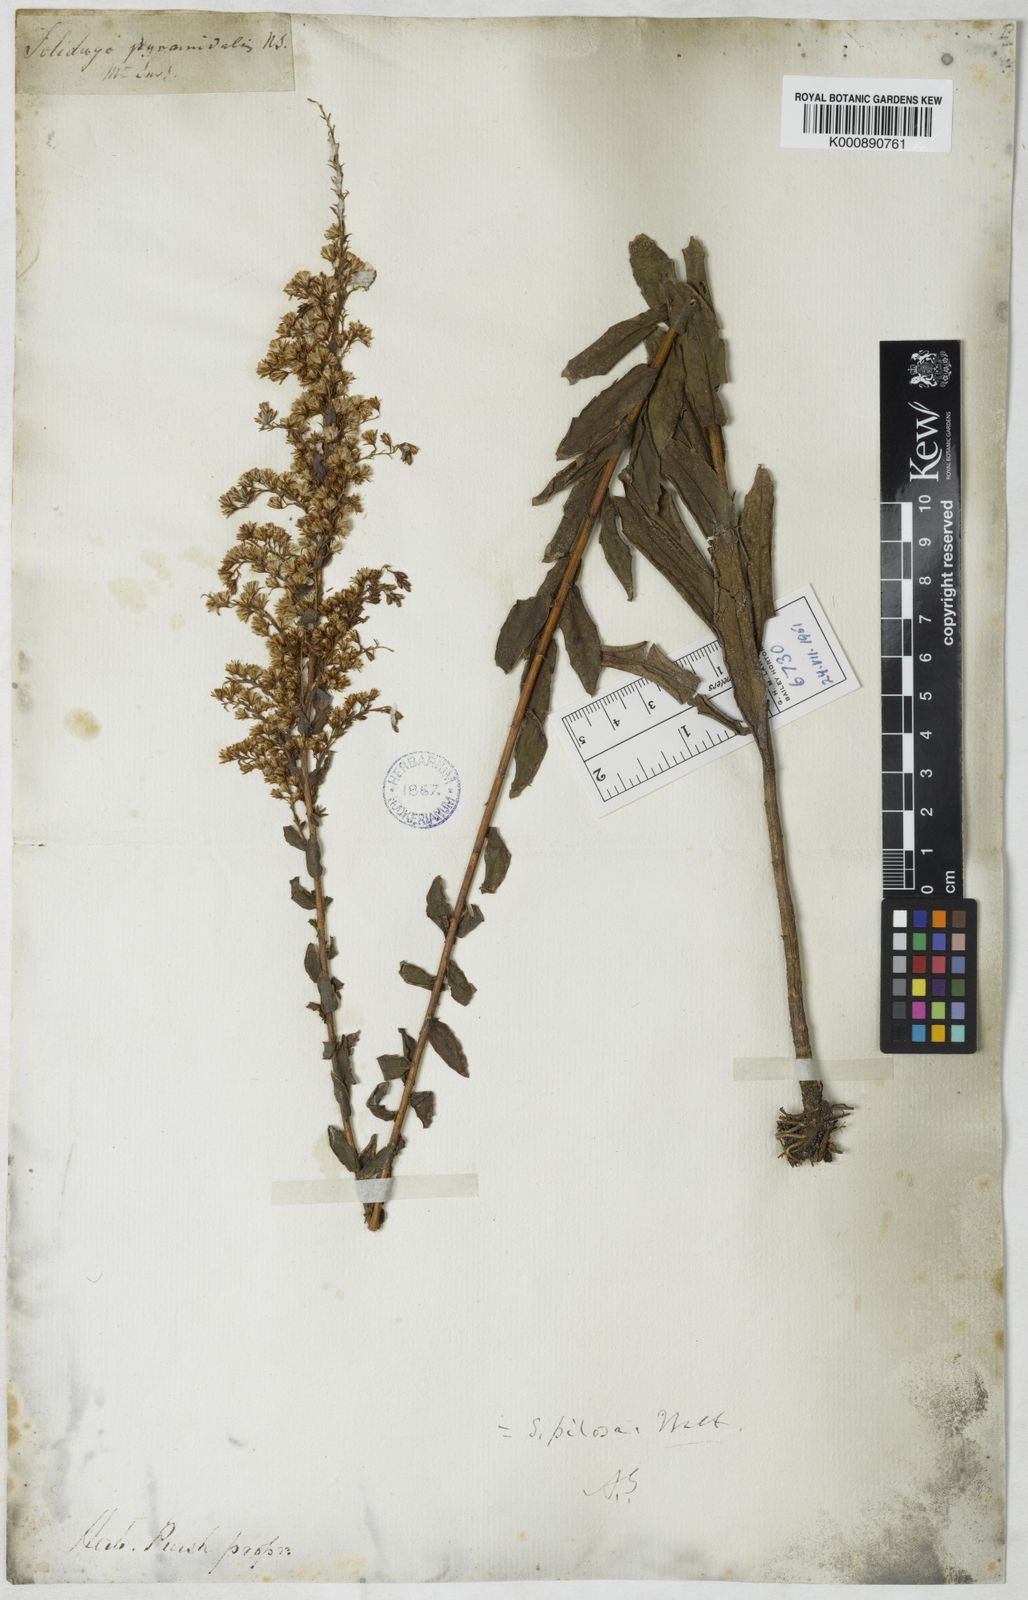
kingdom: Plantae
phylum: Tracheophyta
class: Magnoliopsida
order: Asterales
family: Asteraceae
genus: Solidago
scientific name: Solidago fistulosa
